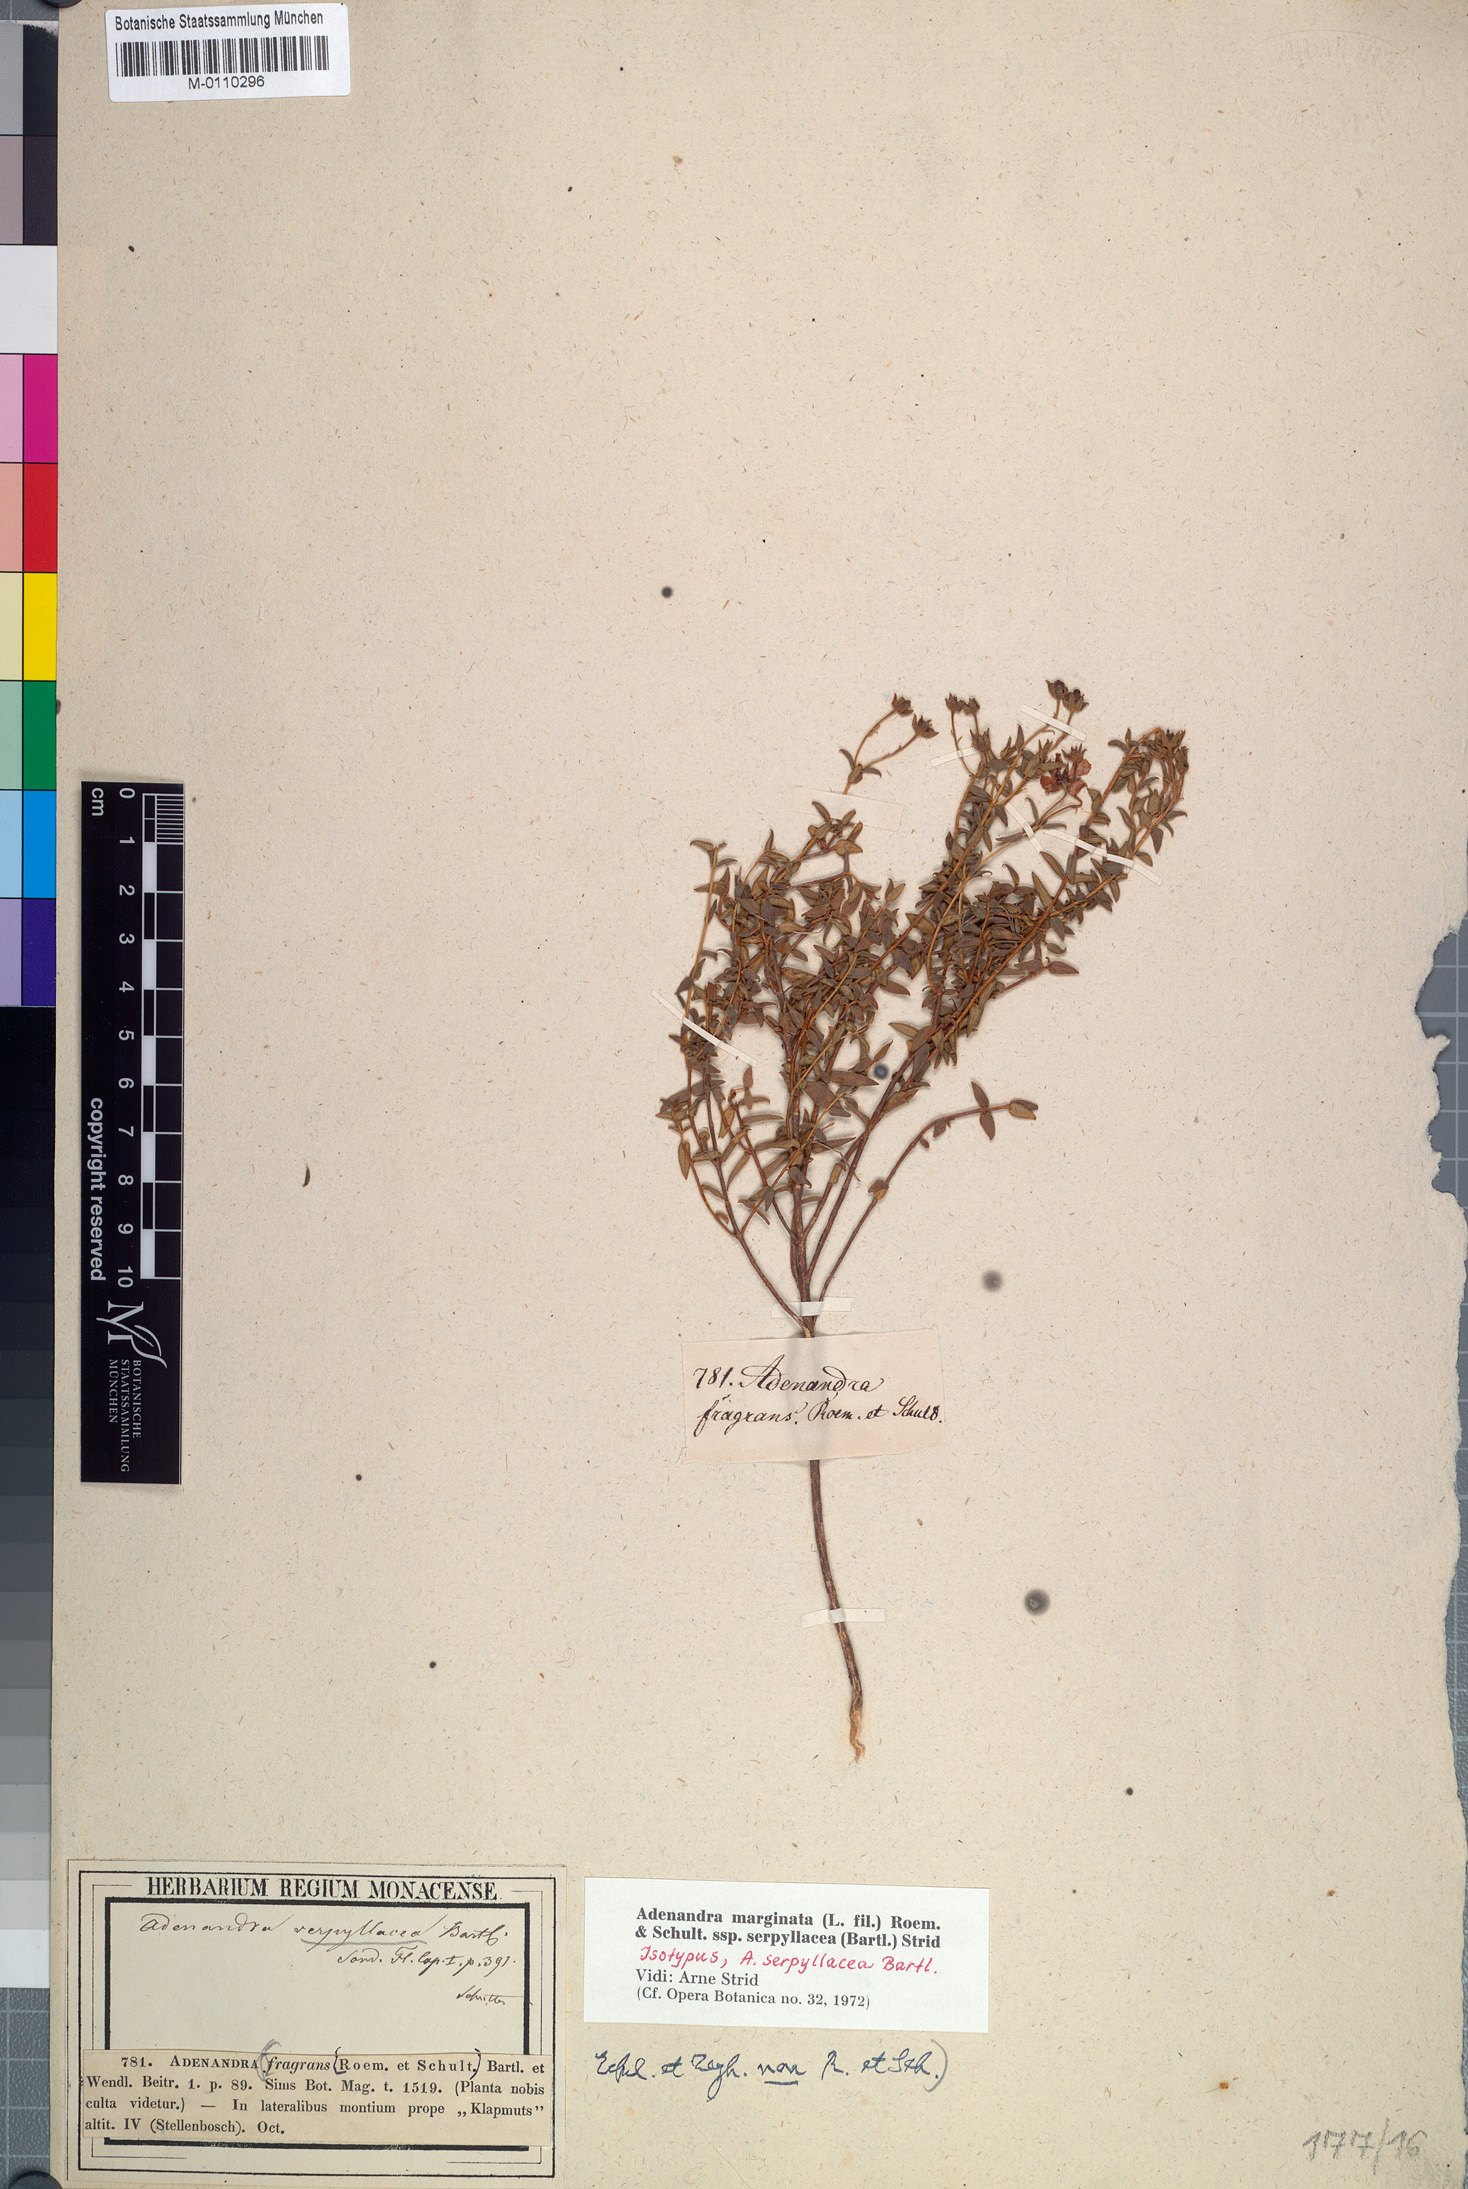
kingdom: Plantae
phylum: Tracheophyta
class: Magnoliopsida
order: Sapindales
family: Rutaceae
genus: Adenandra
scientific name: Adenandra marginata
